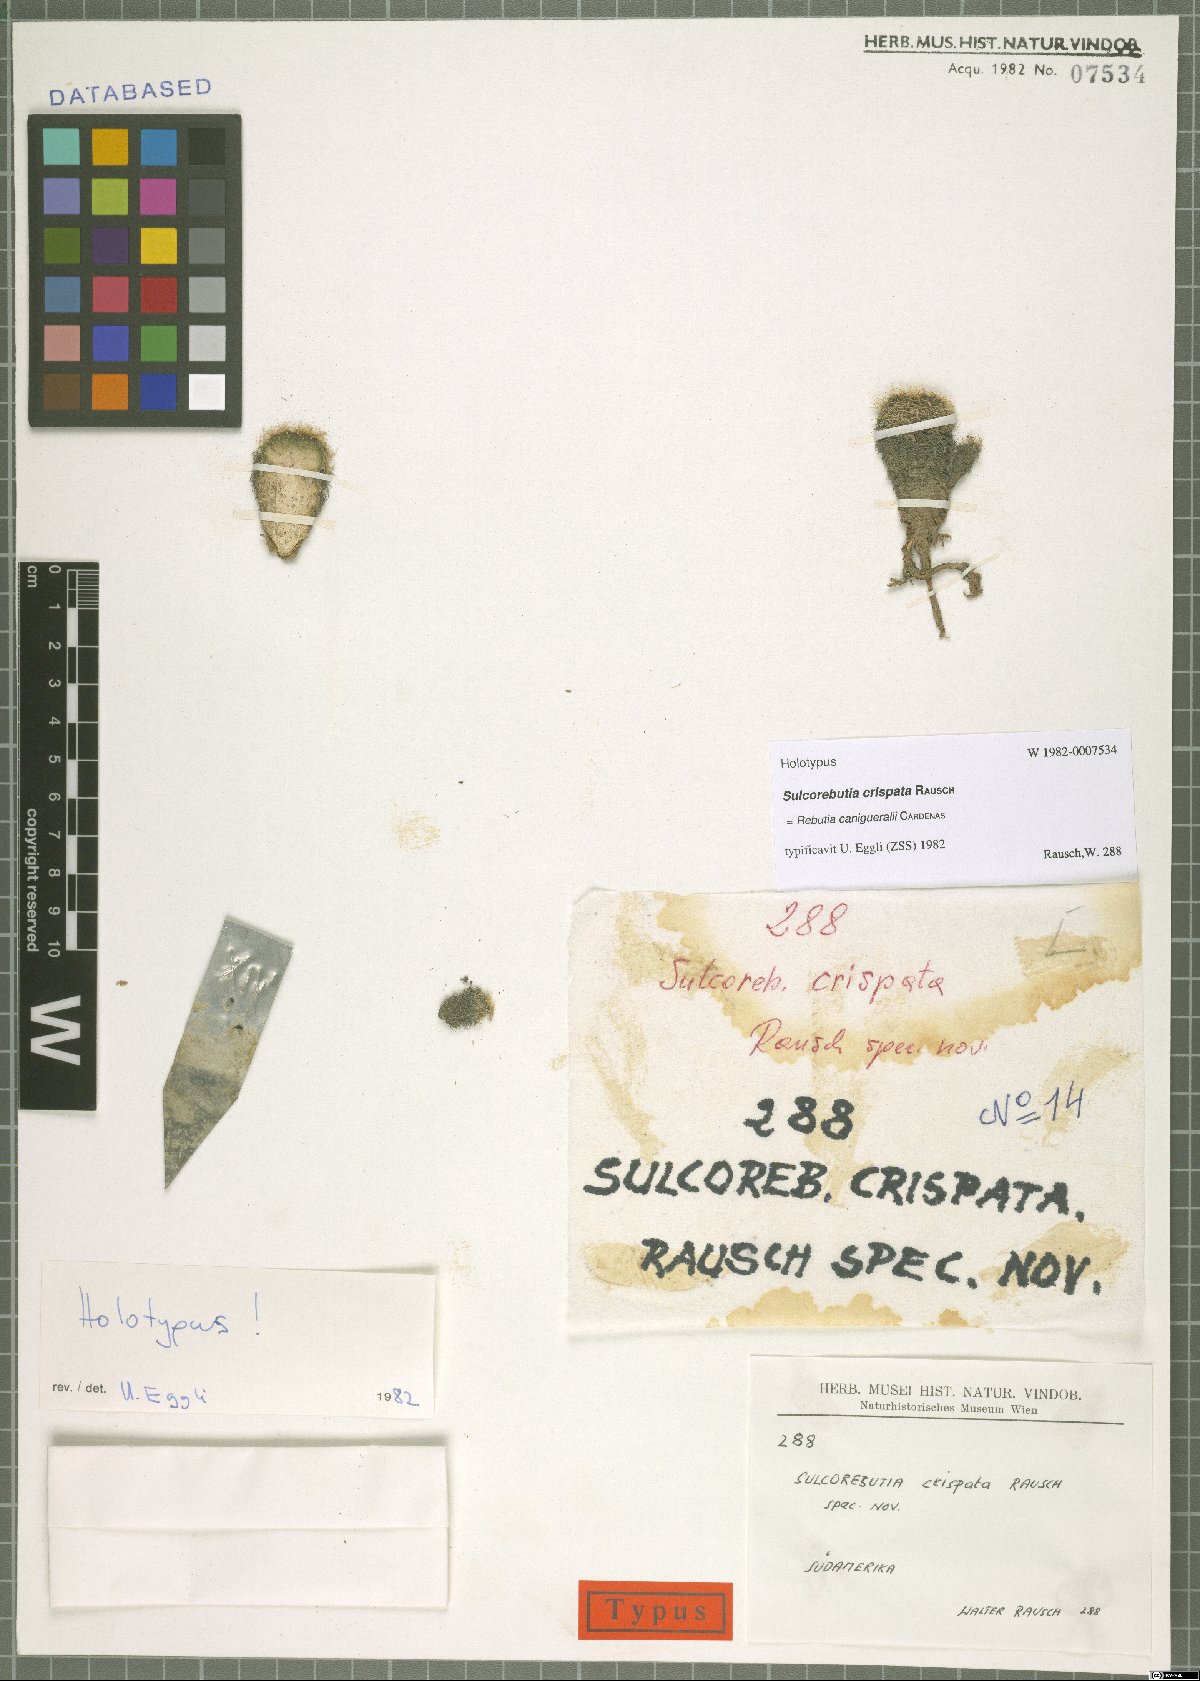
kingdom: Plantae
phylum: Tracheophyta
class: Magnoliopsida
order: Caryophyllales
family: Cactaceae
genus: Weingartia
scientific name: Weingartia canigueralii
